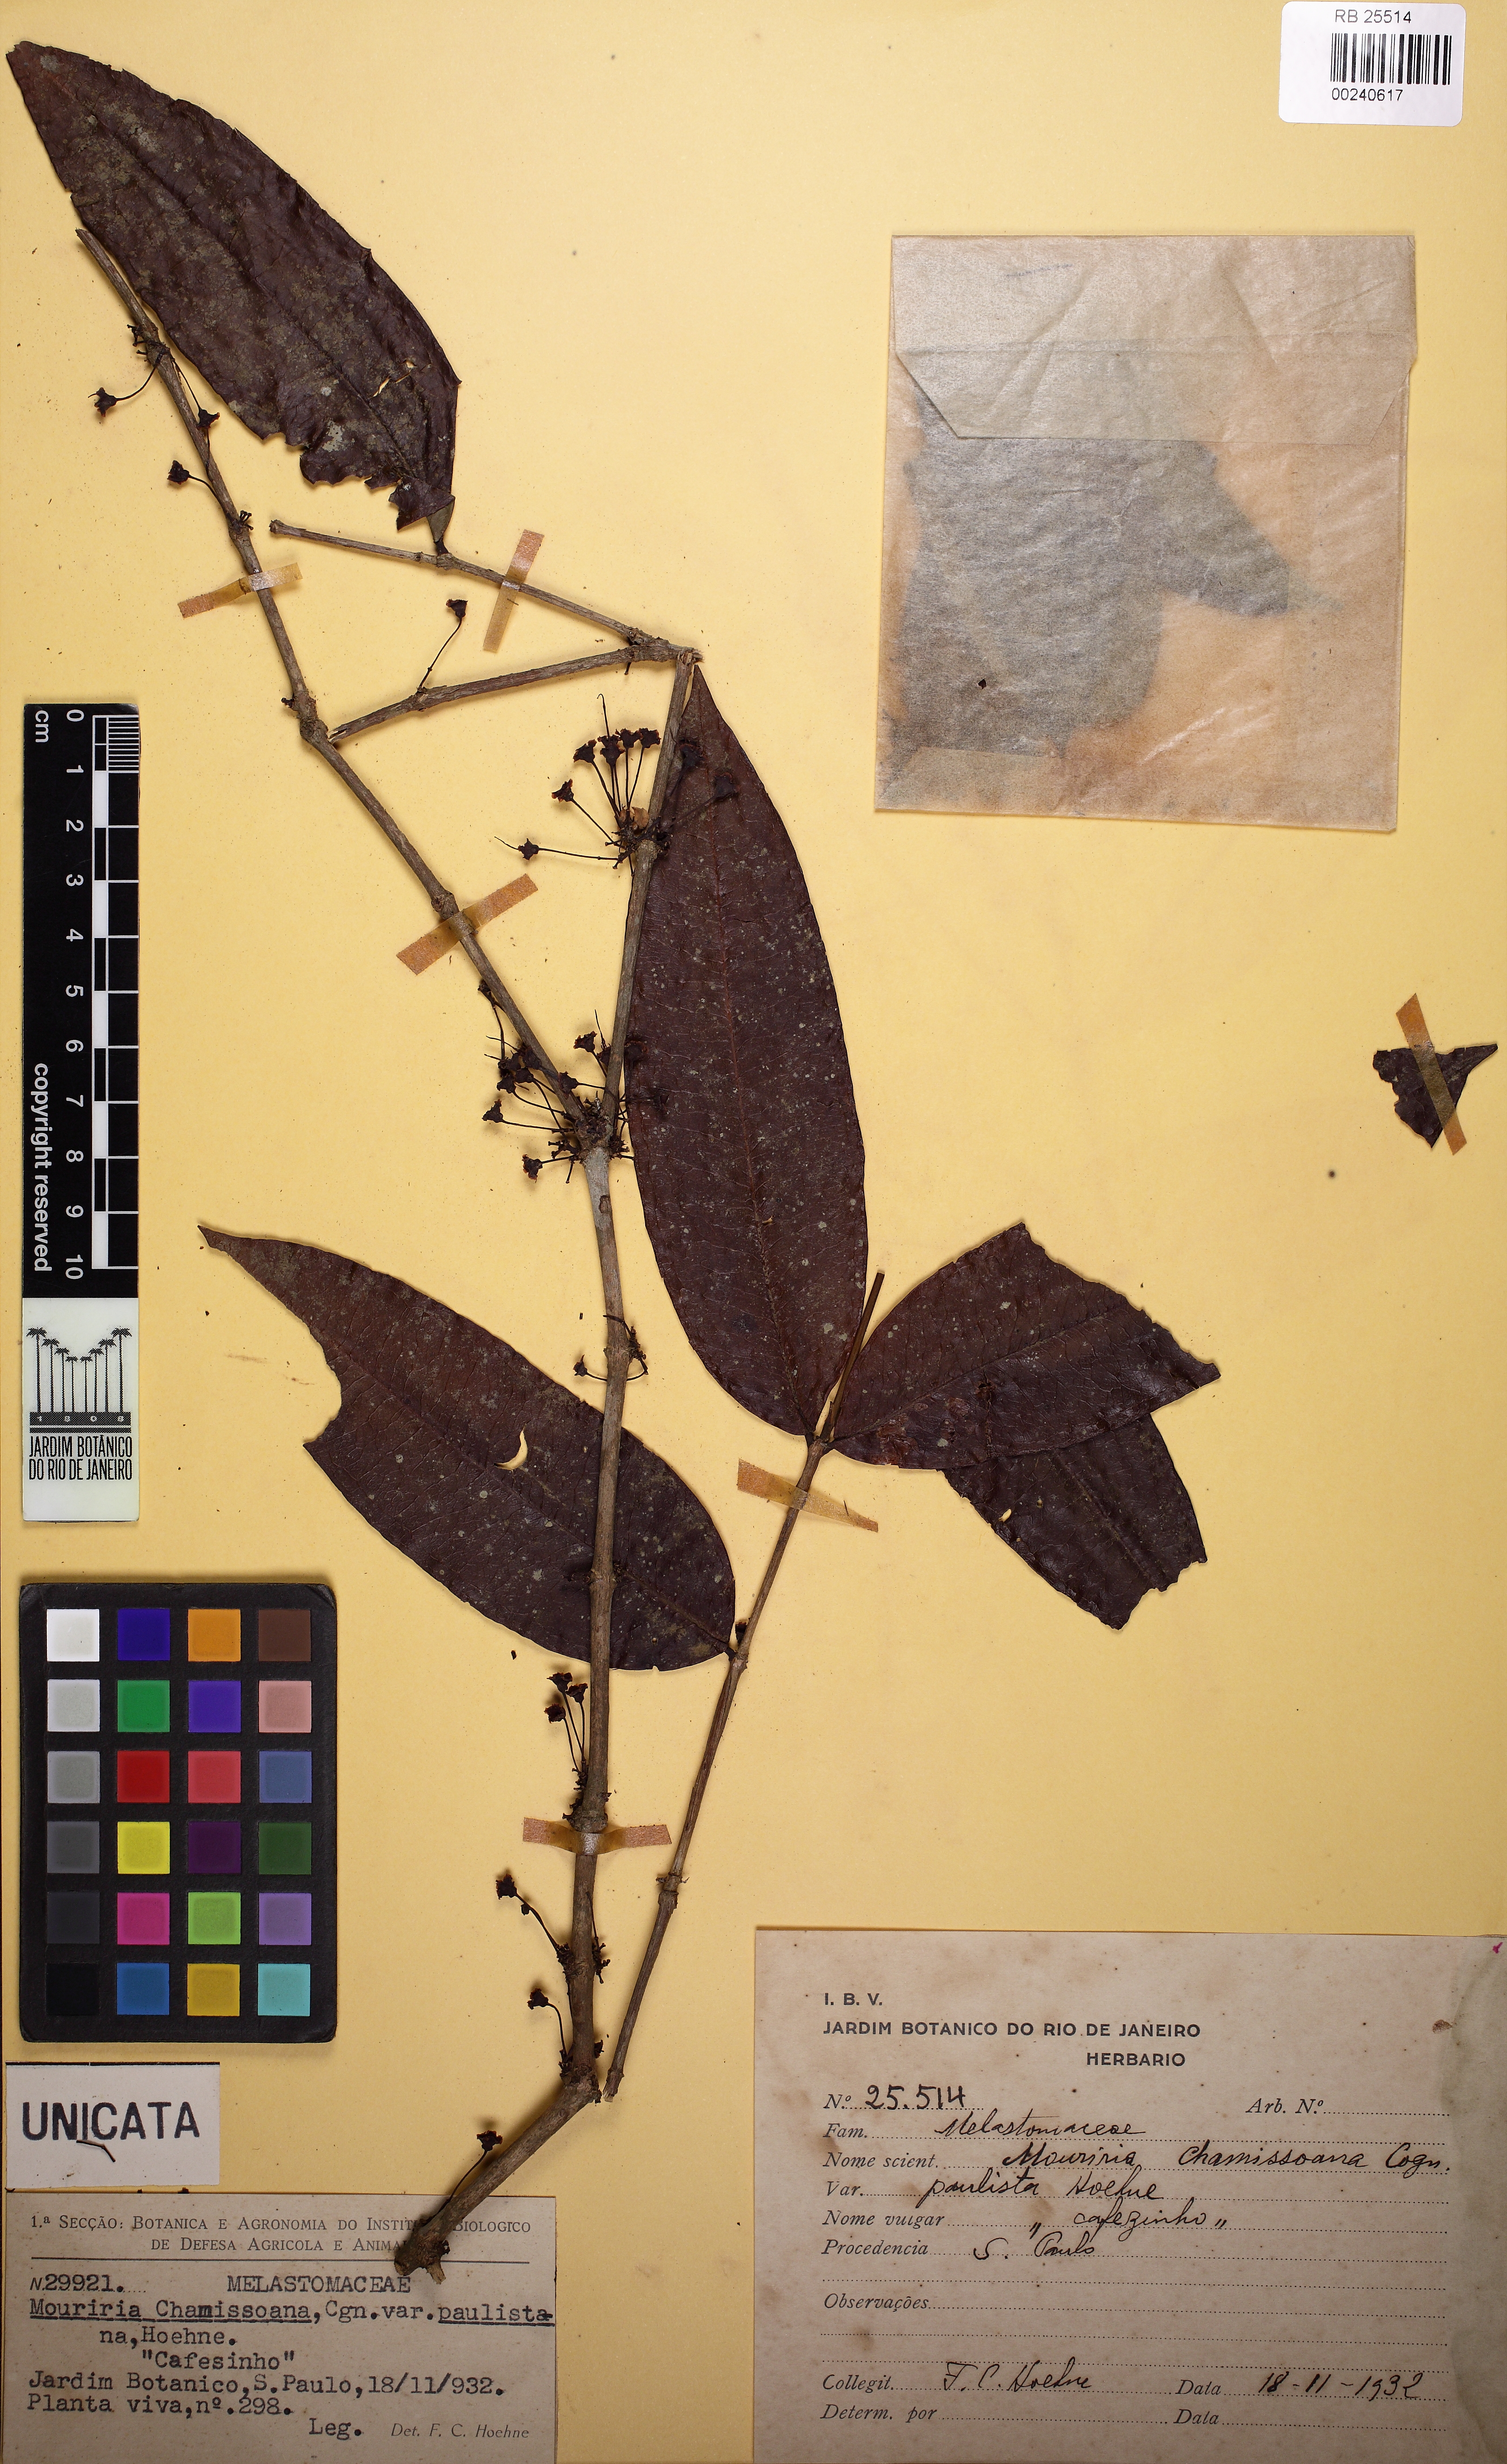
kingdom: Plantae
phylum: Tracheophyta
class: Magnoliopsida
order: Myrtales
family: Melastomataceae
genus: Mouriri
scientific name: Mouriri chamissoana
